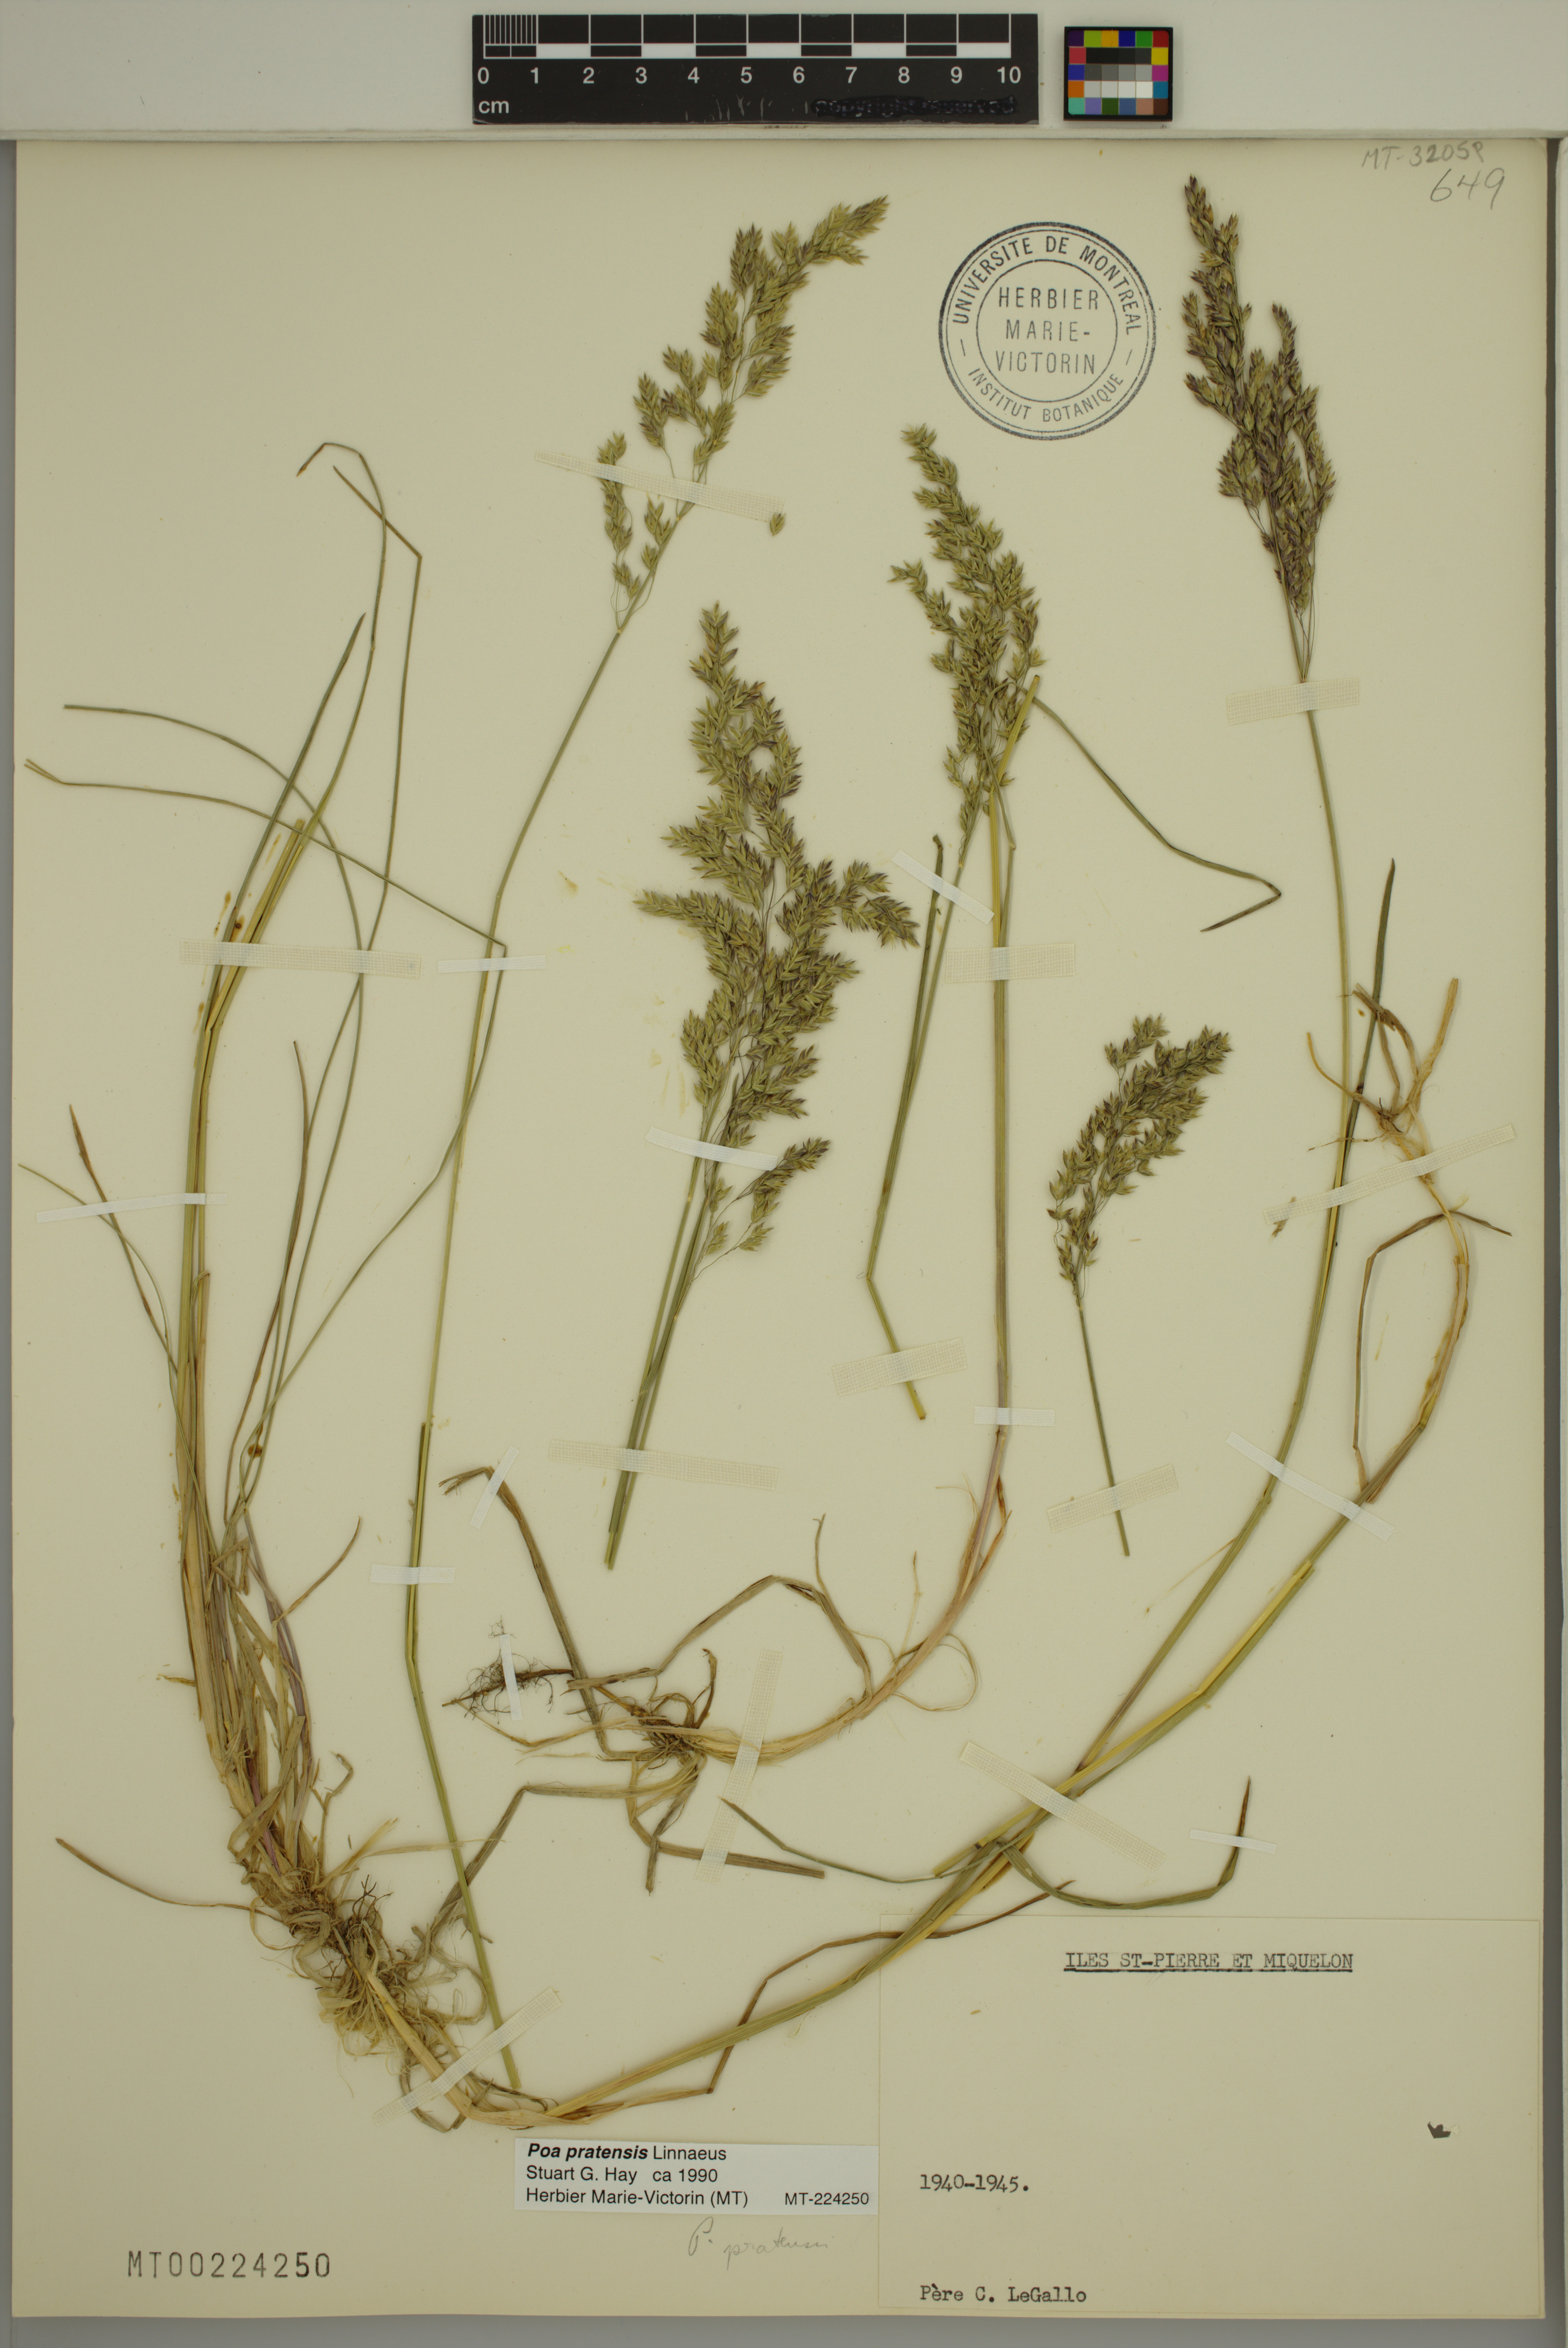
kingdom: Plantae
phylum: Tracheophyta
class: Liliopsida
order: Poales
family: Poaceae
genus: Poa
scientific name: Poa pratensis
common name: Kentucky bluegrass
